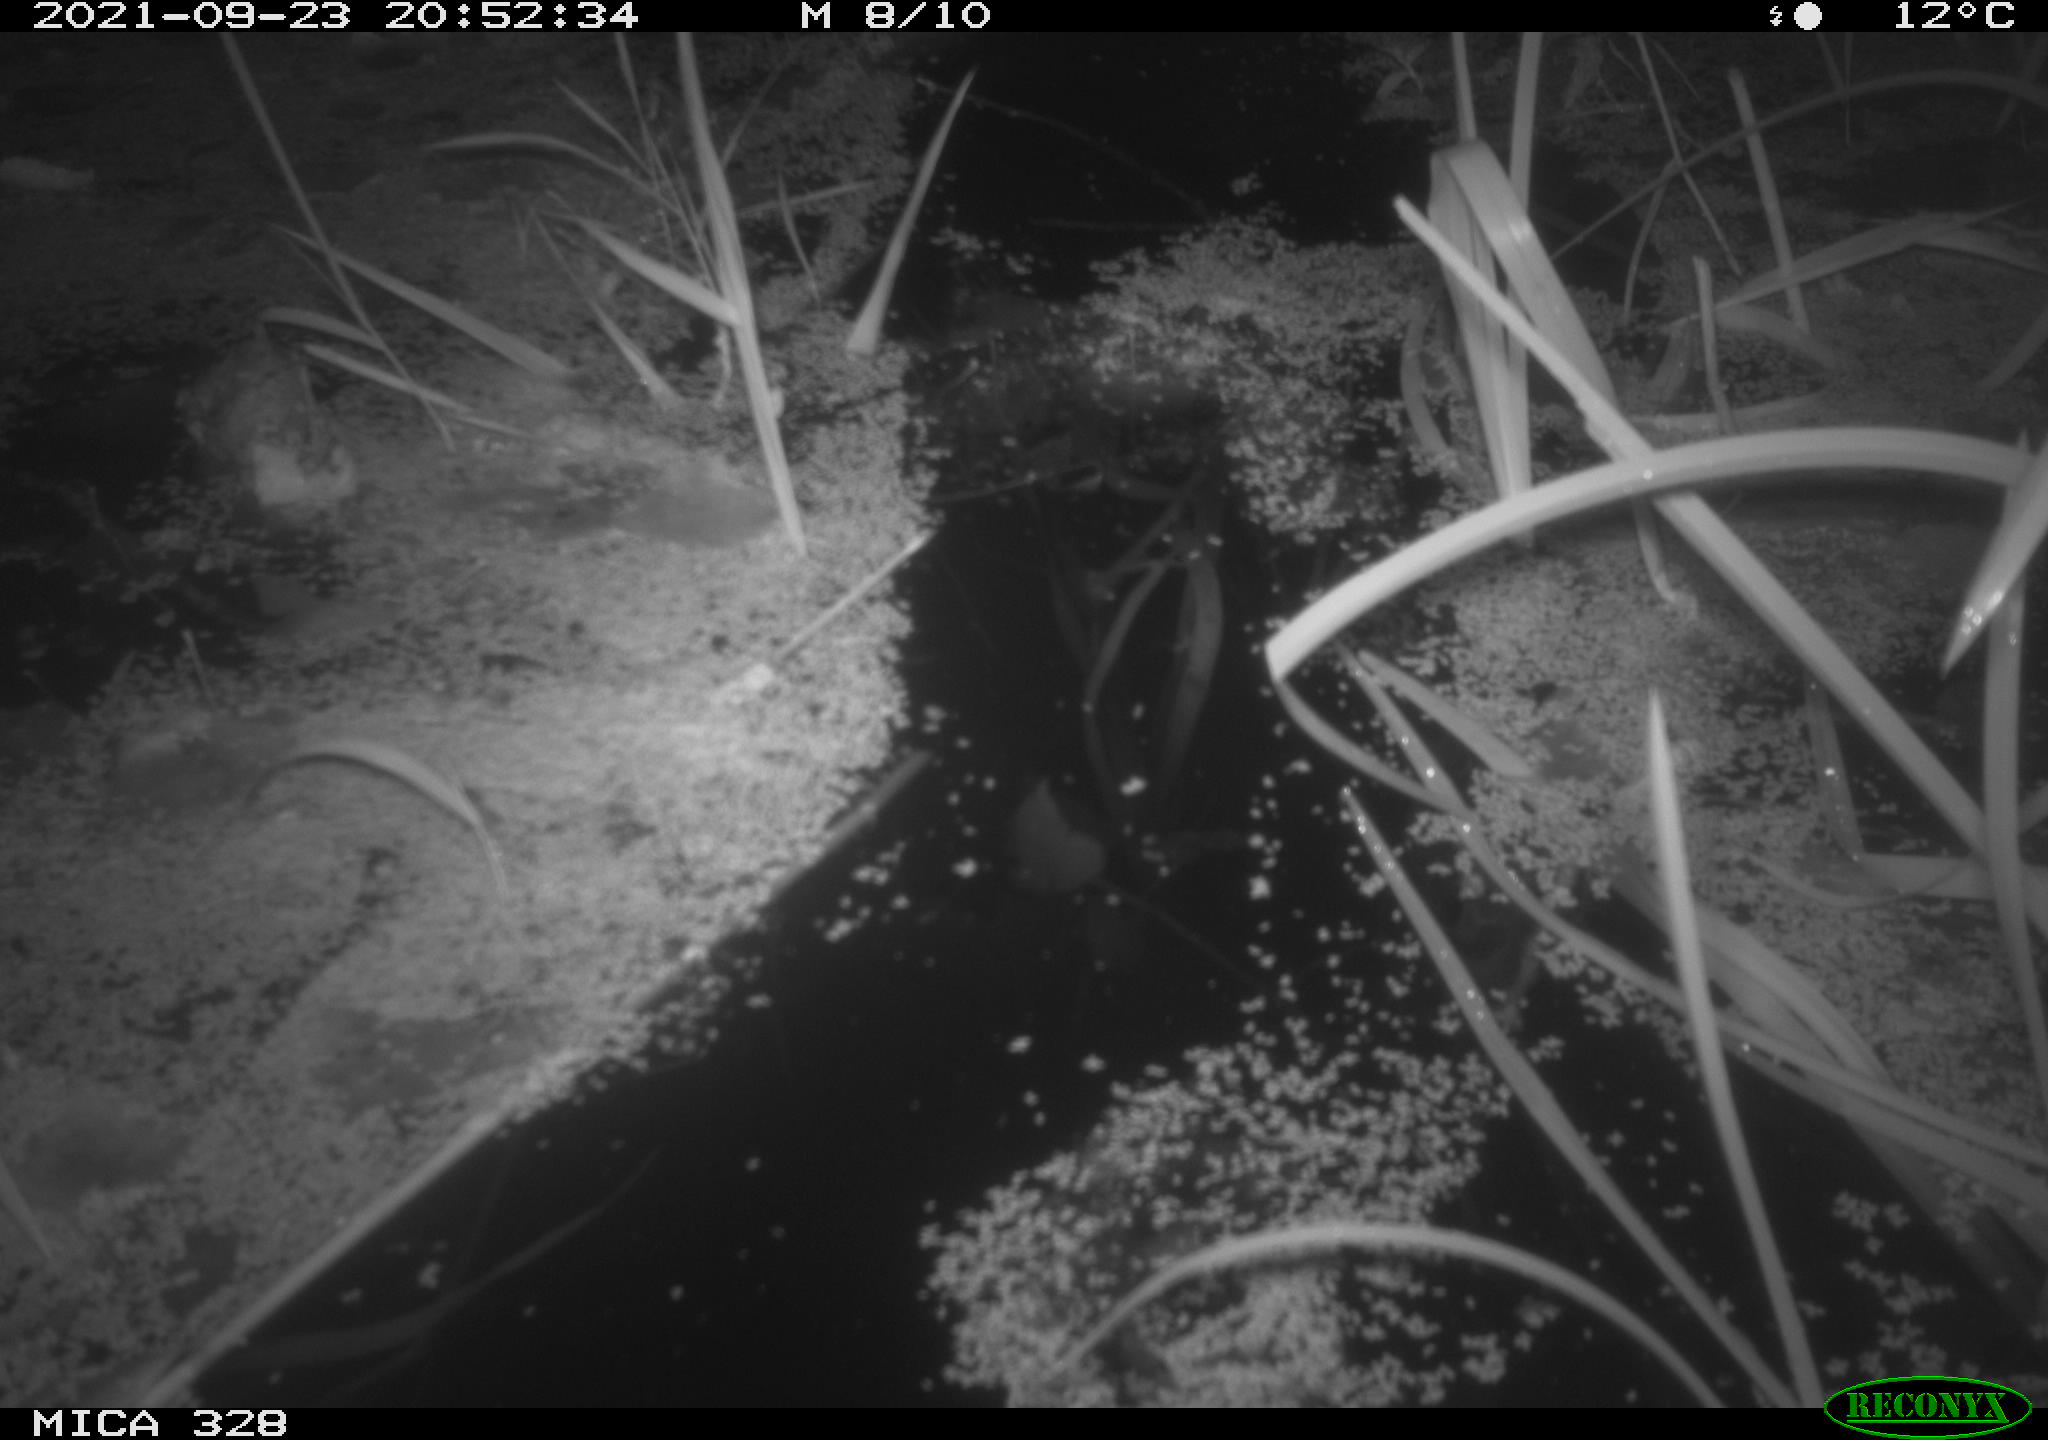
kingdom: Animalia
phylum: Chordata
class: Mammalia
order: Rodentia
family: Cricetidae
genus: Ondatra
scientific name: Ondatra zibethicus
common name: Muskrat
